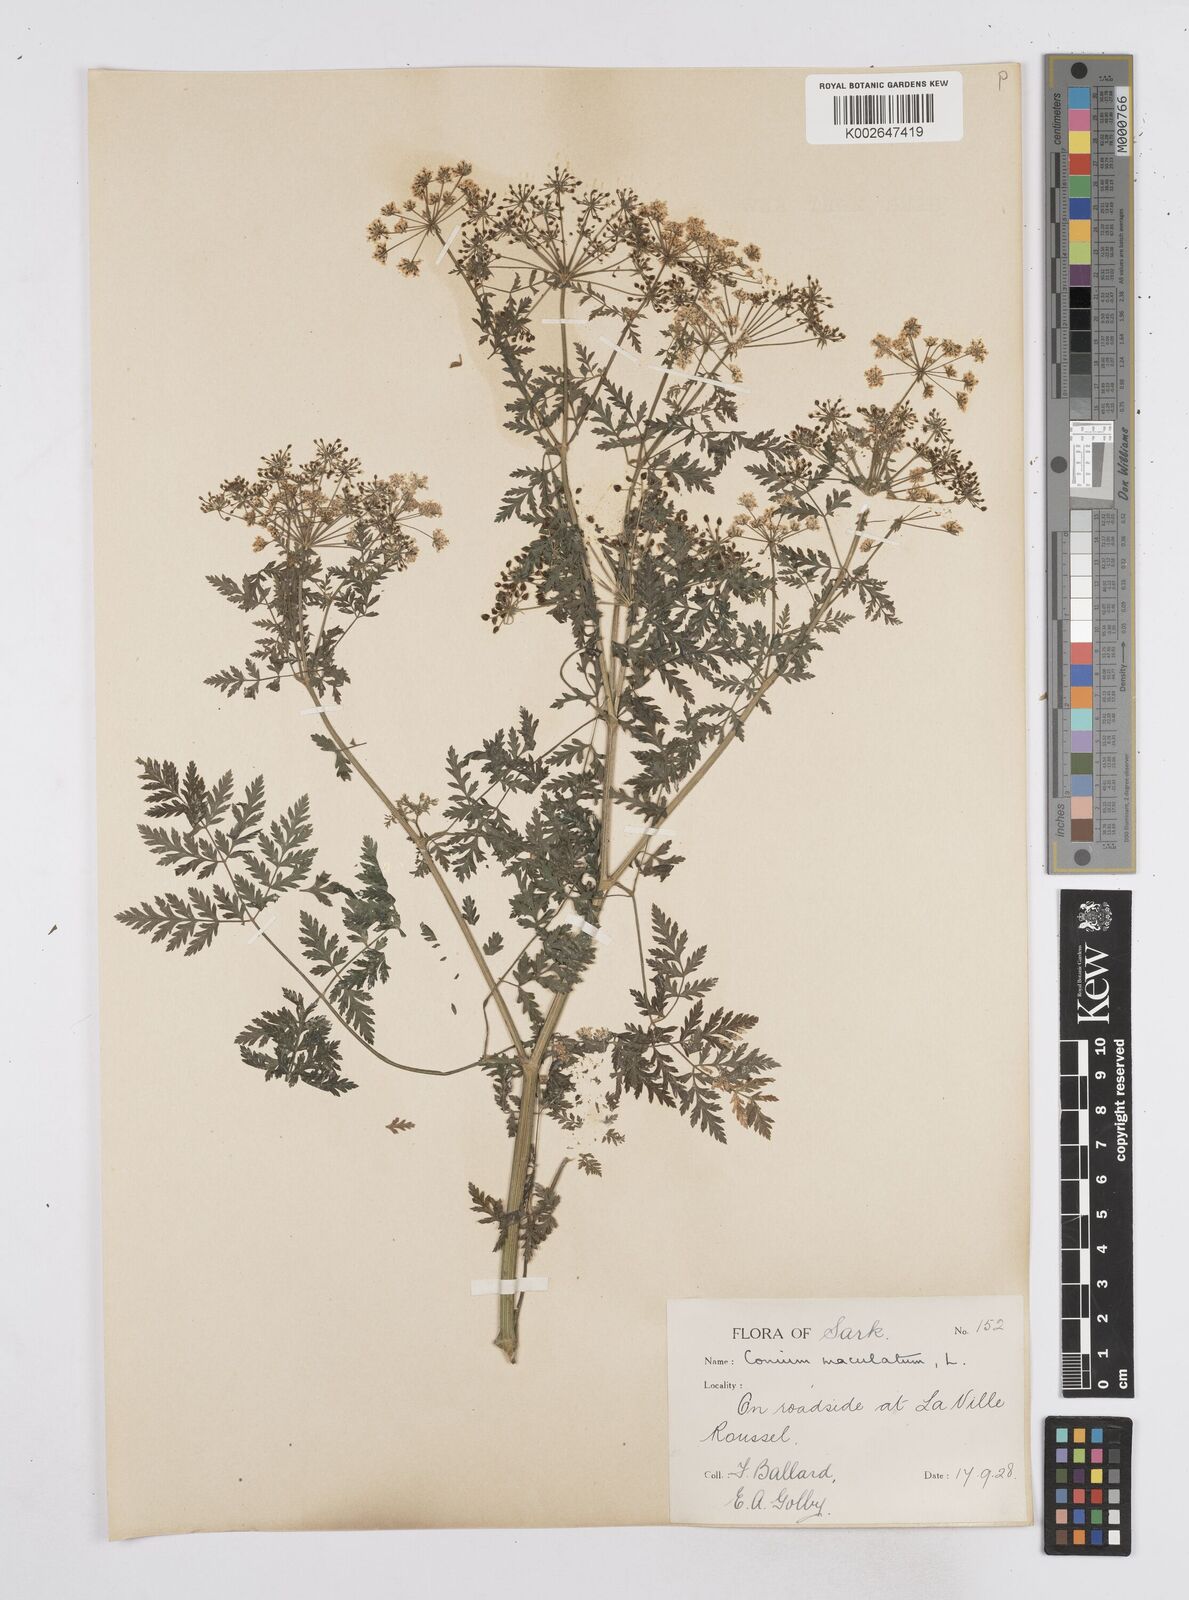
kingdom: Plantae
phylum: Tracheophyta
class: Magnoliopsida
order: Apiales
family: Apiaceae
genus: Conium
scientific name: Conium maculatum
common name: Hemlock
